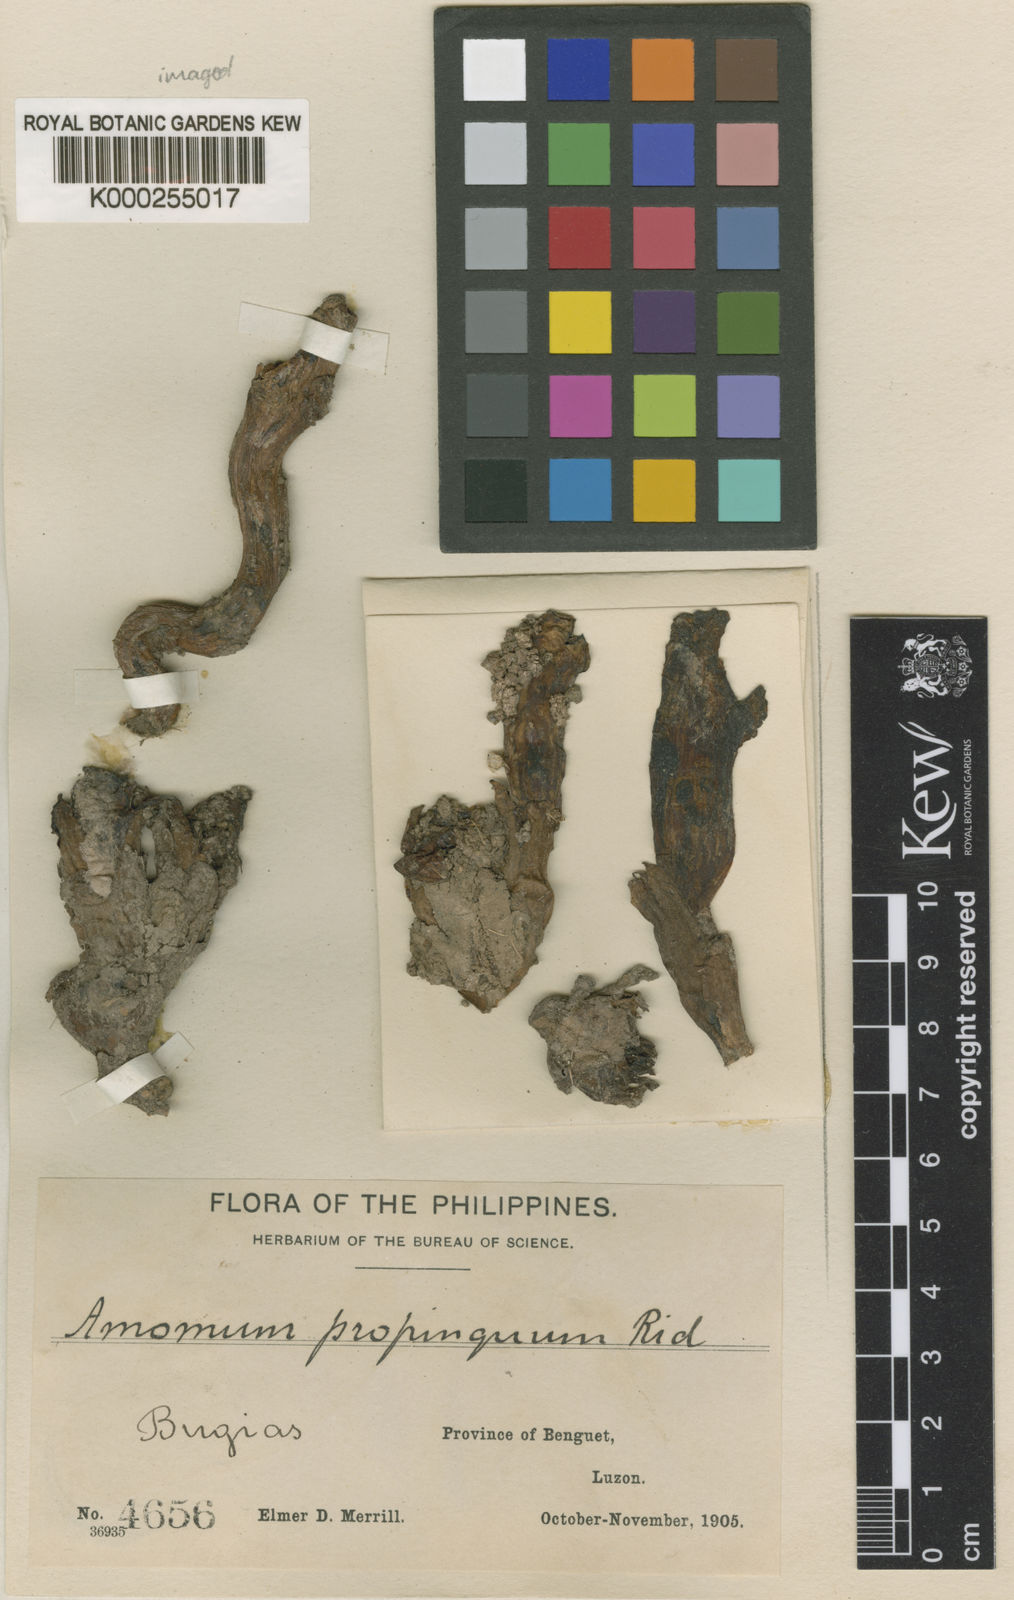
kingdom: Plantae
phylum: Tracheophyta
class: Liliopsida
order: Zingiberales
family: Zingiberaceae
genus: Meistera
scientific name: Meistera propinqua
